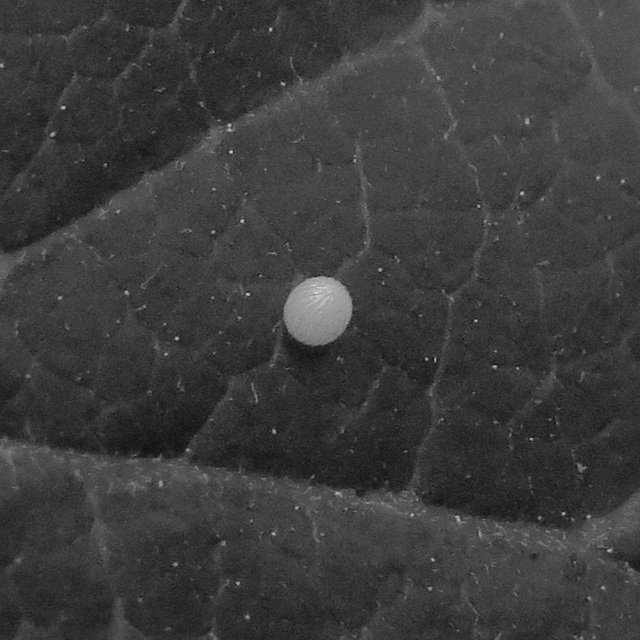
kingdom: Animalia
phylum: Arthropoda
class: Insecta
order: Lepidoptera
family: Nymphalidae
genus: Danaus
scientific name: Danaus plexippus
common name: Monarch
